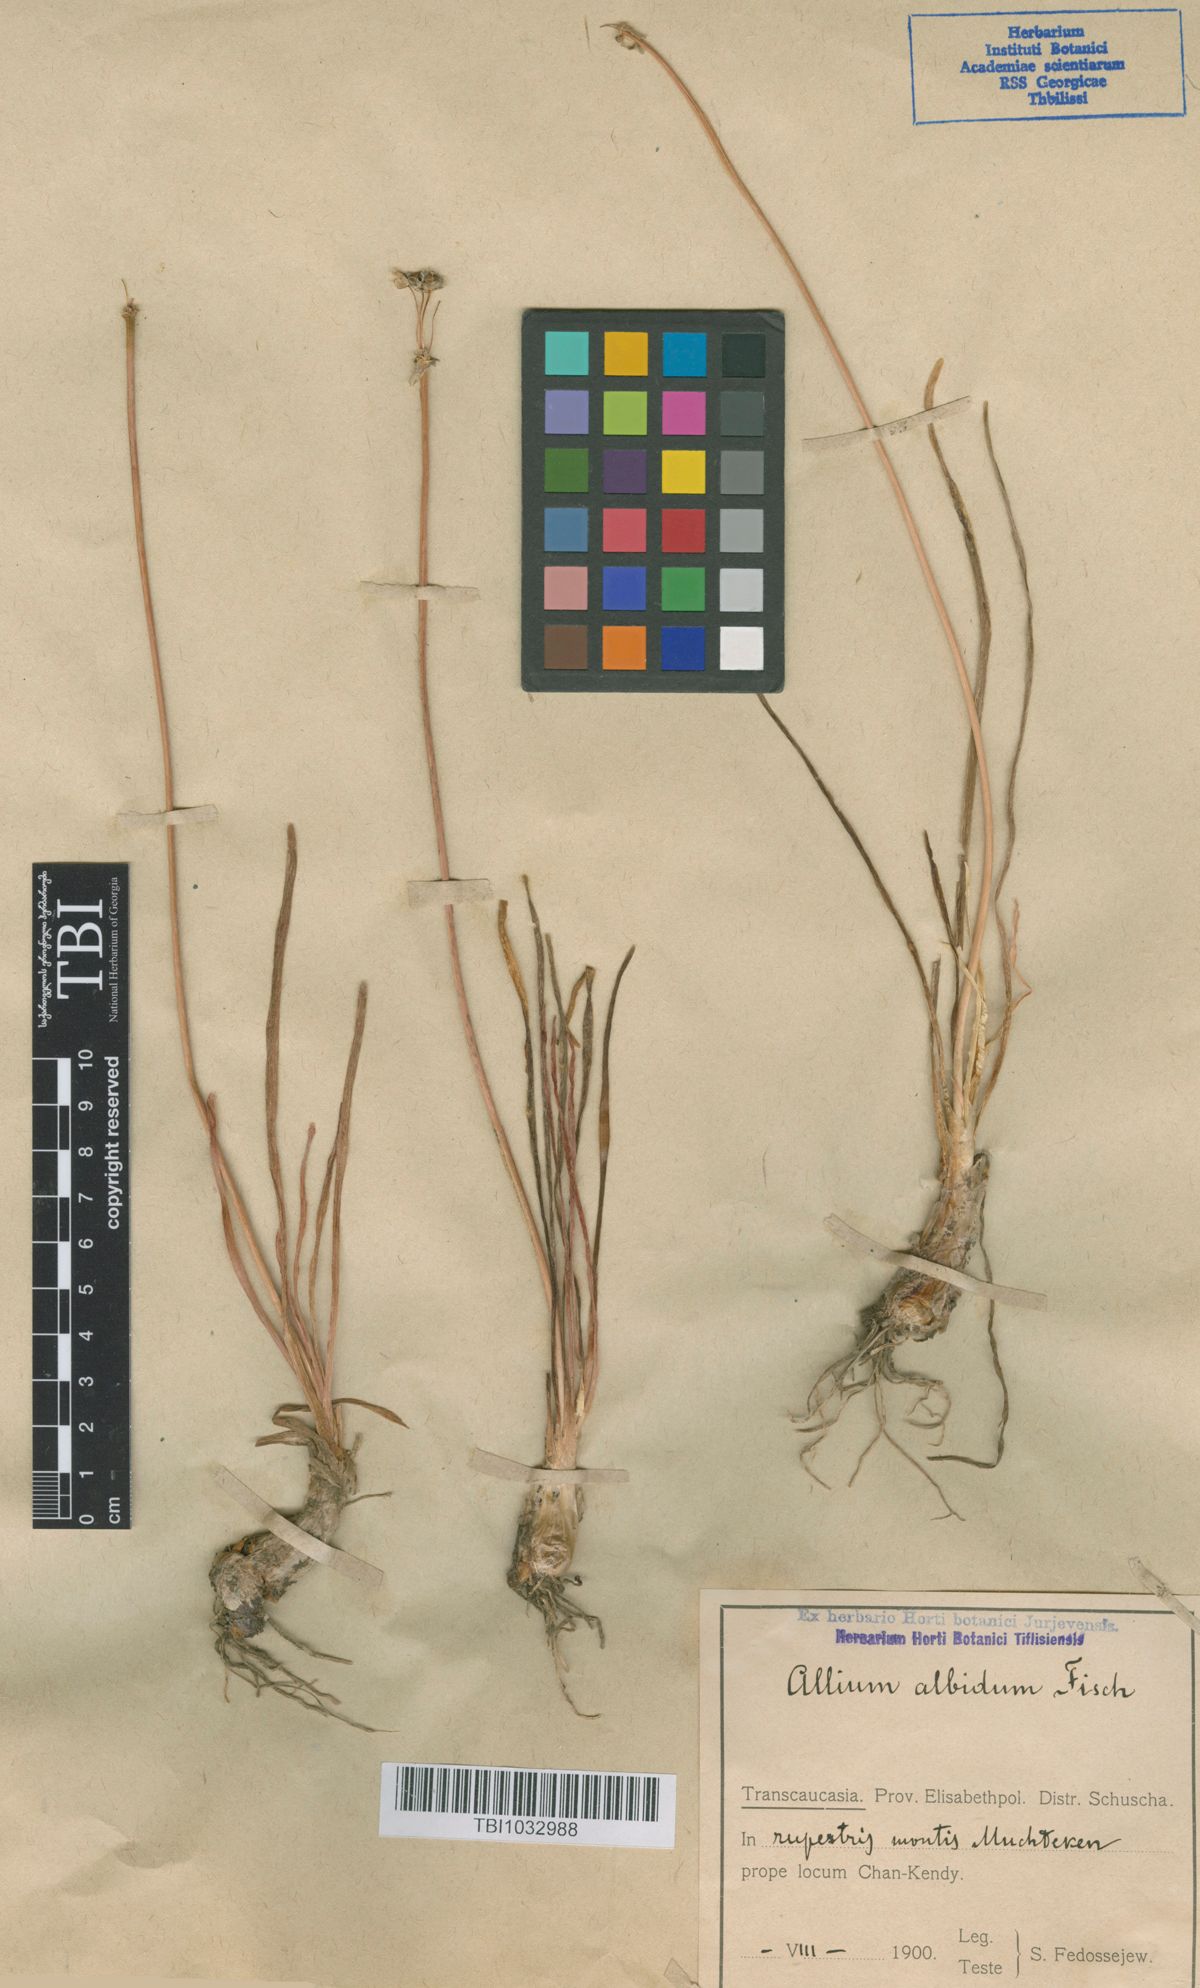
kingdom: Plantae
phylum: Tracheophyta
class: Liliopsida
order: Asparagales
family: Amaryllidaceae
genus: Allium
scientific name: Allium denudatum
